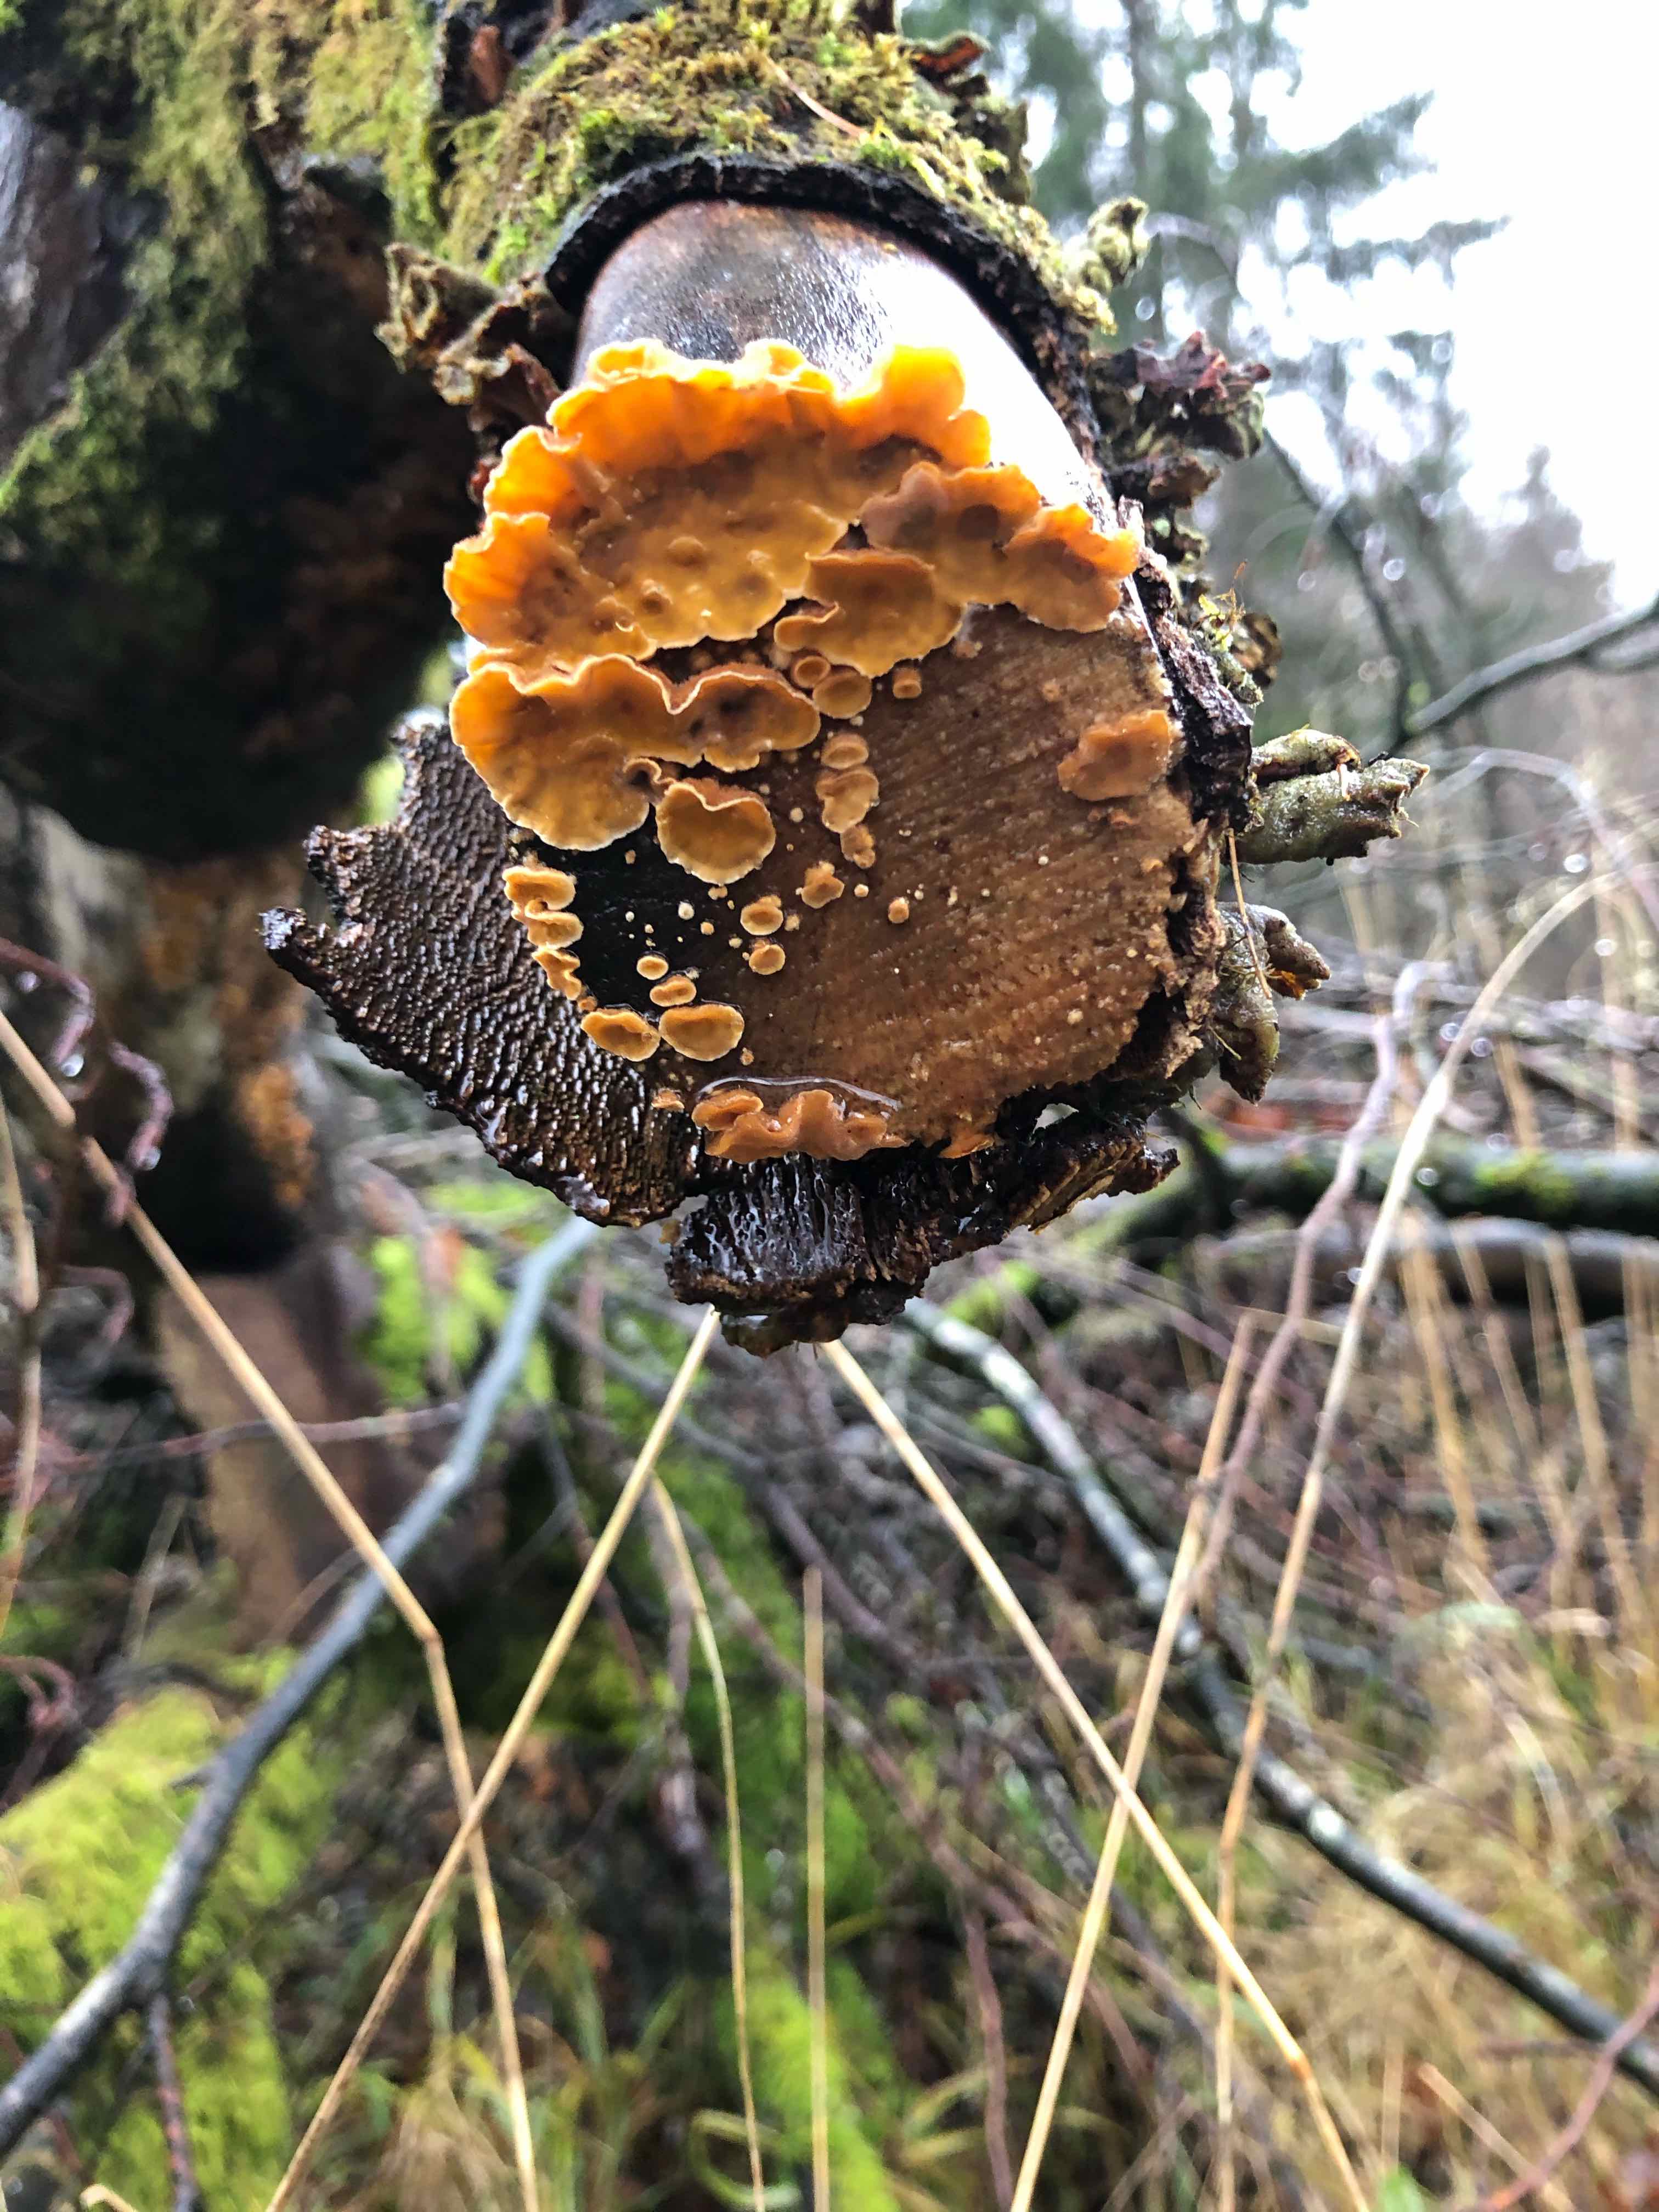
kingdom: Fungi
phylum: Basidiomycota
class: Agaricomycetes
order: Russulales
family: Stereaceae
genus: Stereum
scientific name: Stereum hirsutum
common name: håret lædersvamp
